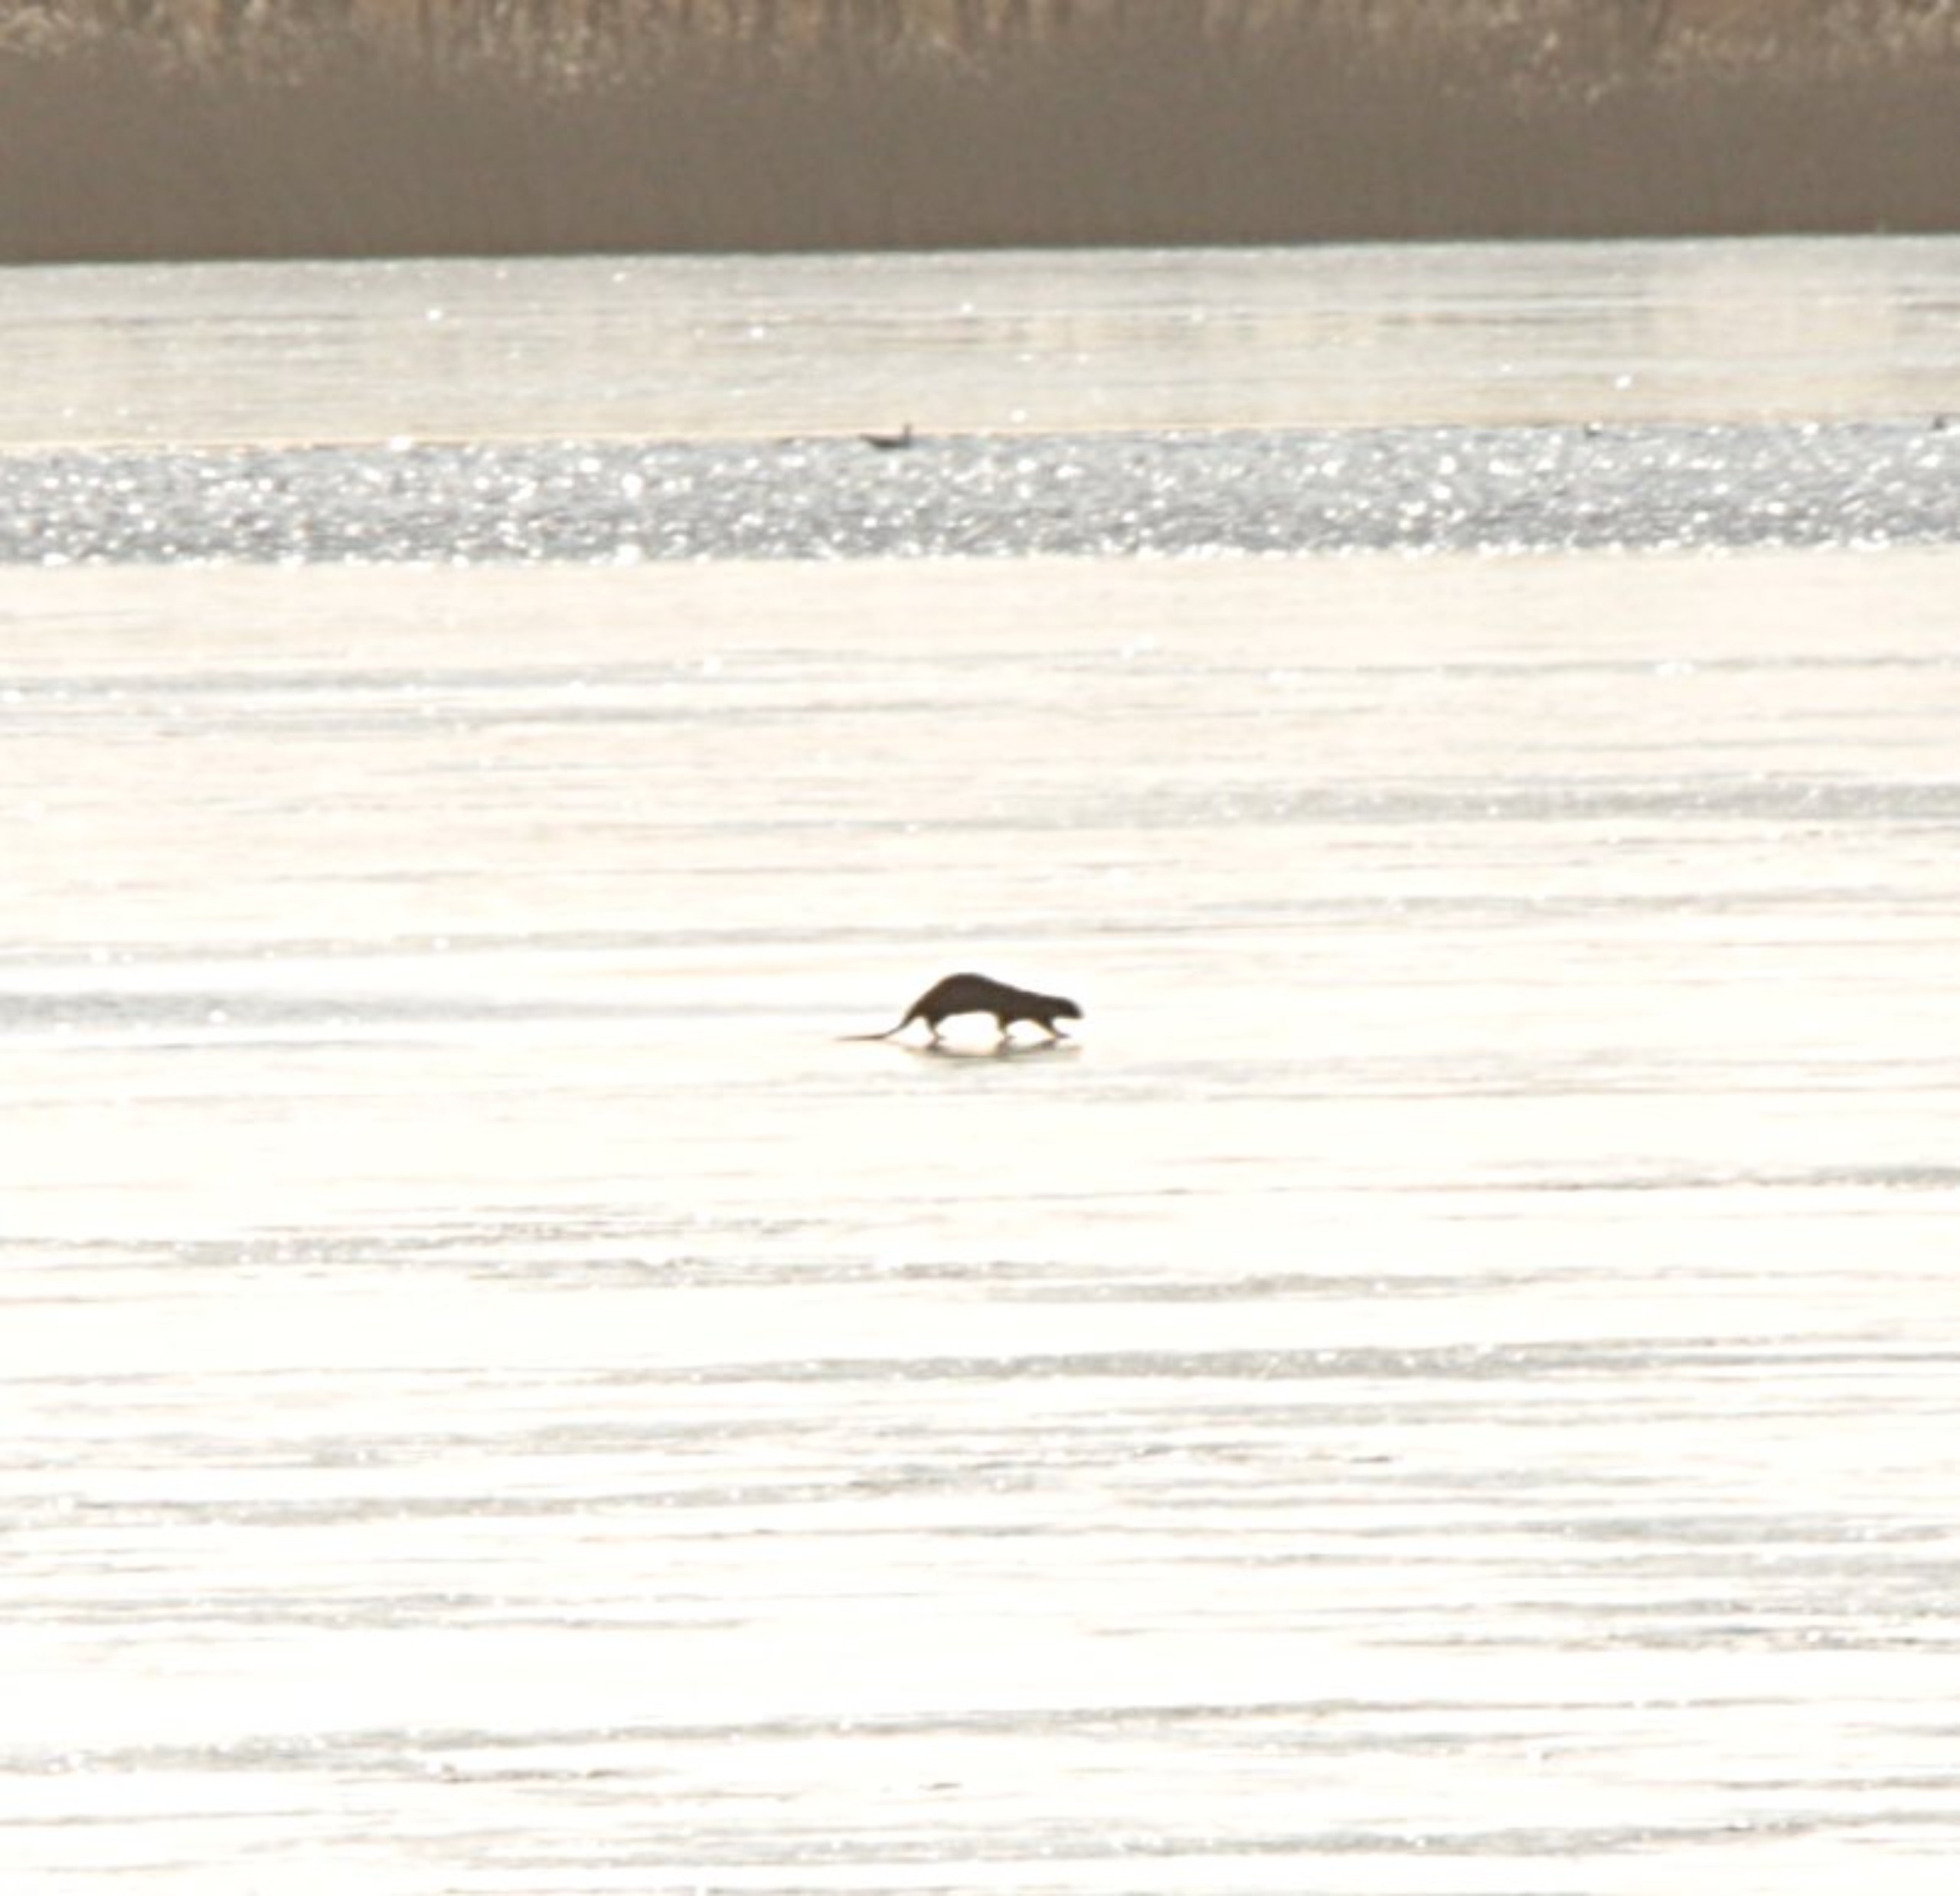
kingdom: Animalia
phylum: Chordata
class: Mammalia
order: Carnivora
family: Mustelidae
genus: Lutra
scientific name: Lutra lutra
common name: Odder
